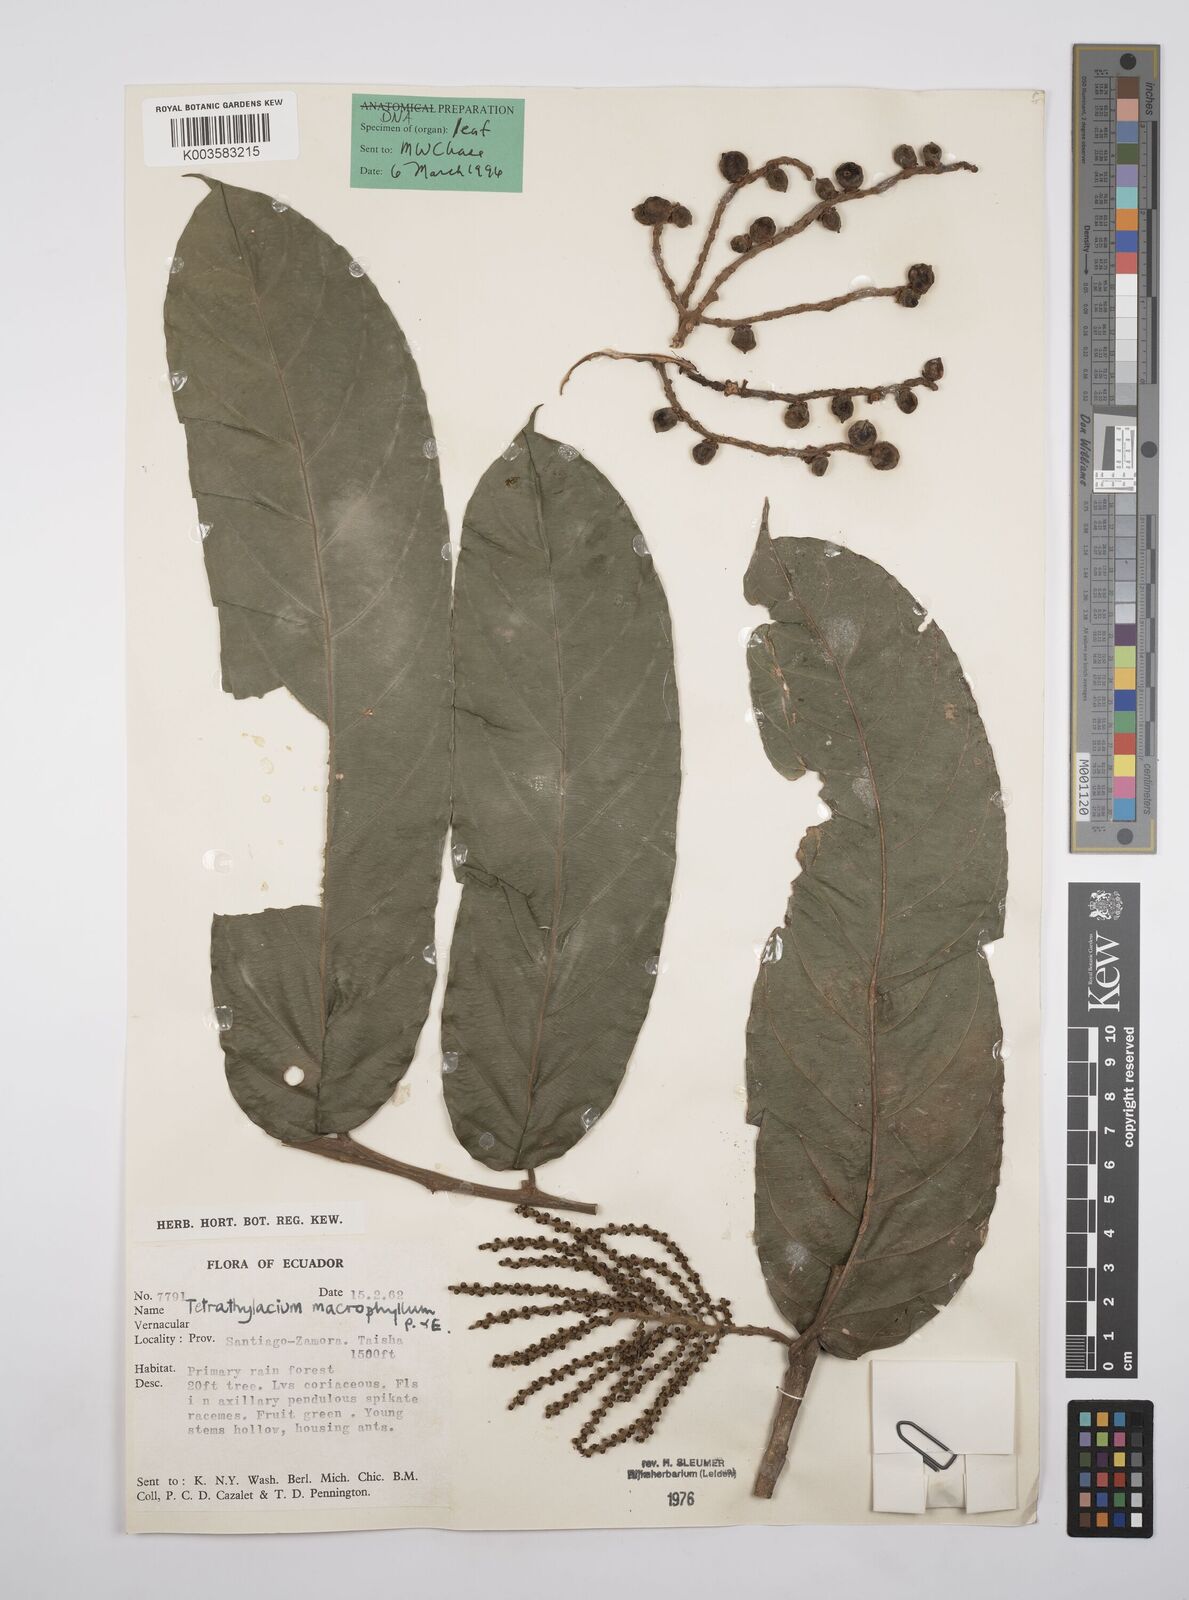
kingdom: Plantae
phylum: Tracheophyta
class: Magnoliopsida
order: Malpighiales
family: Salicaceae
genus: Tetrathylacium
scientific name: Tetrathylacium macrophyllum
